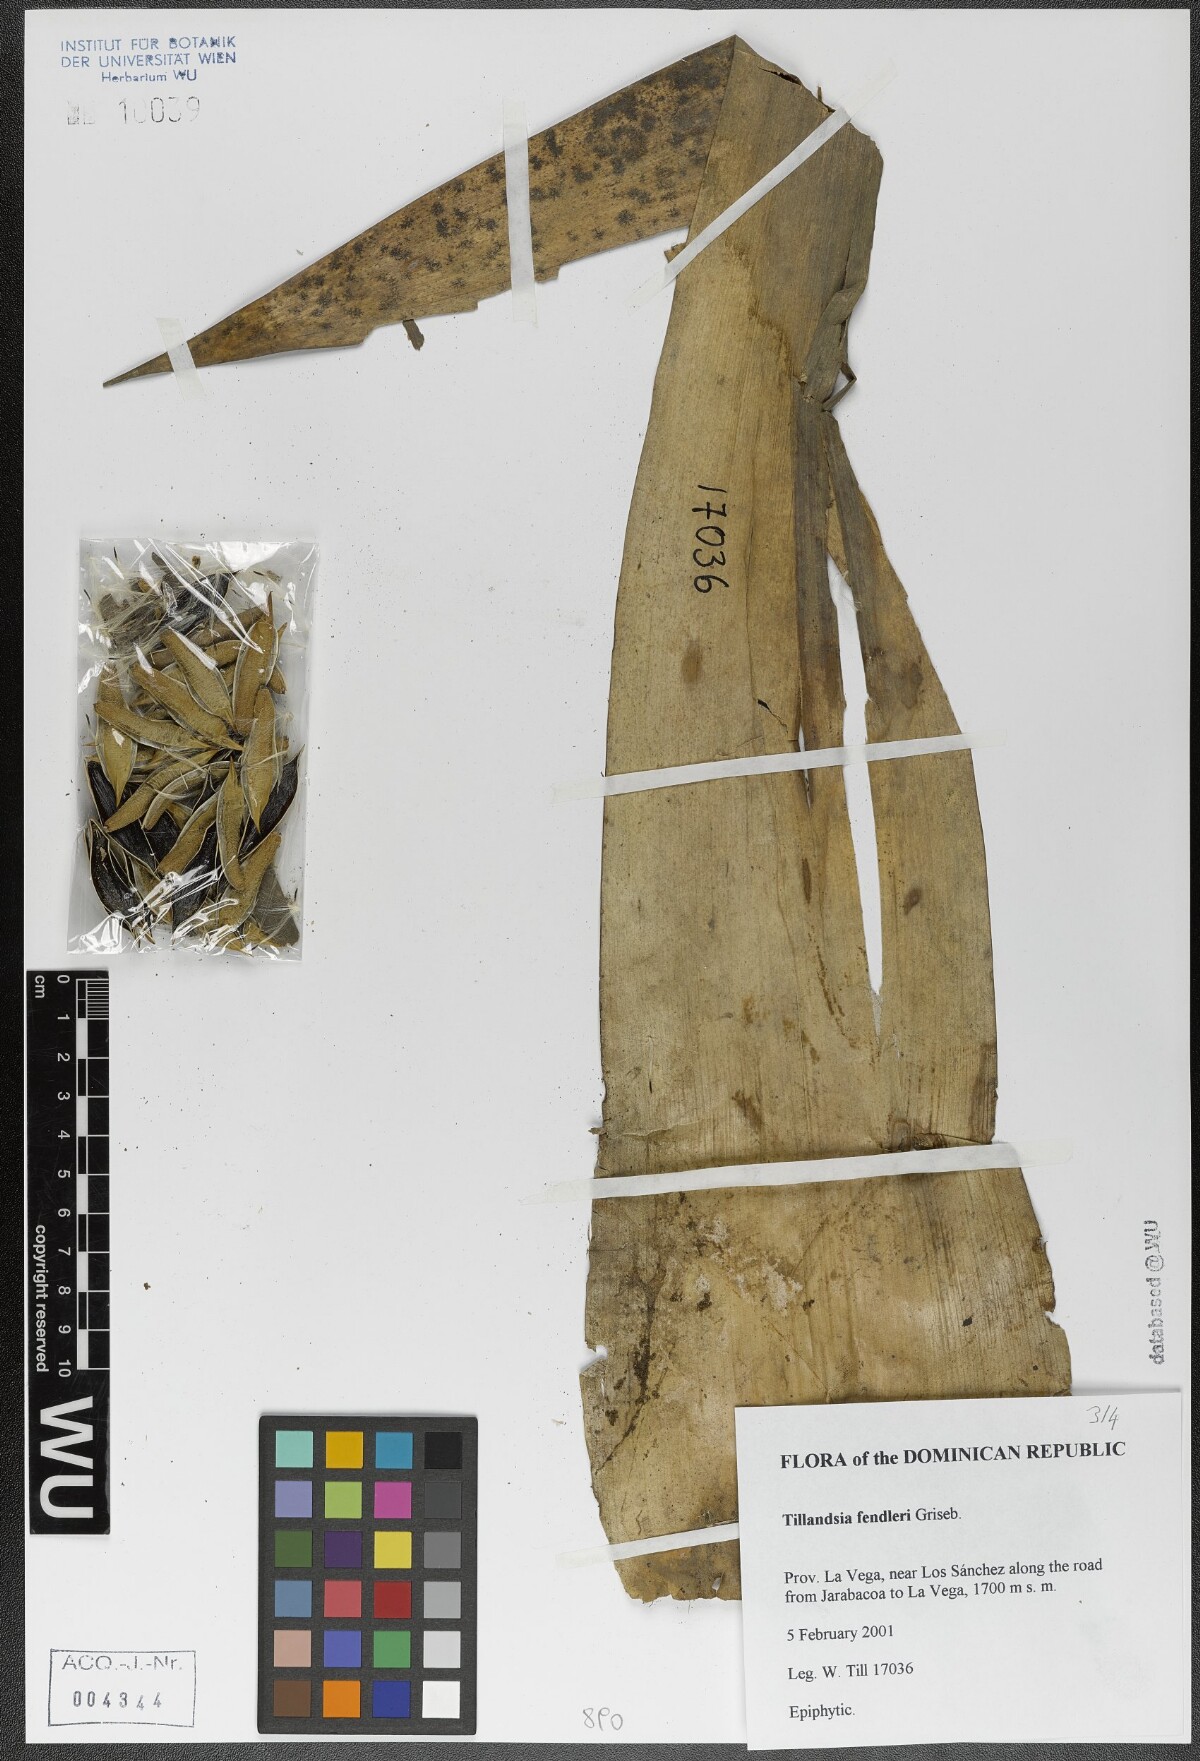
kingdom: Plantae
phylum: Tracheophyta
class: Liliopsida
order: Poales
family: Bromeliaceae
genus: Tillandsia
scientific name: Tillandsia fendleri
